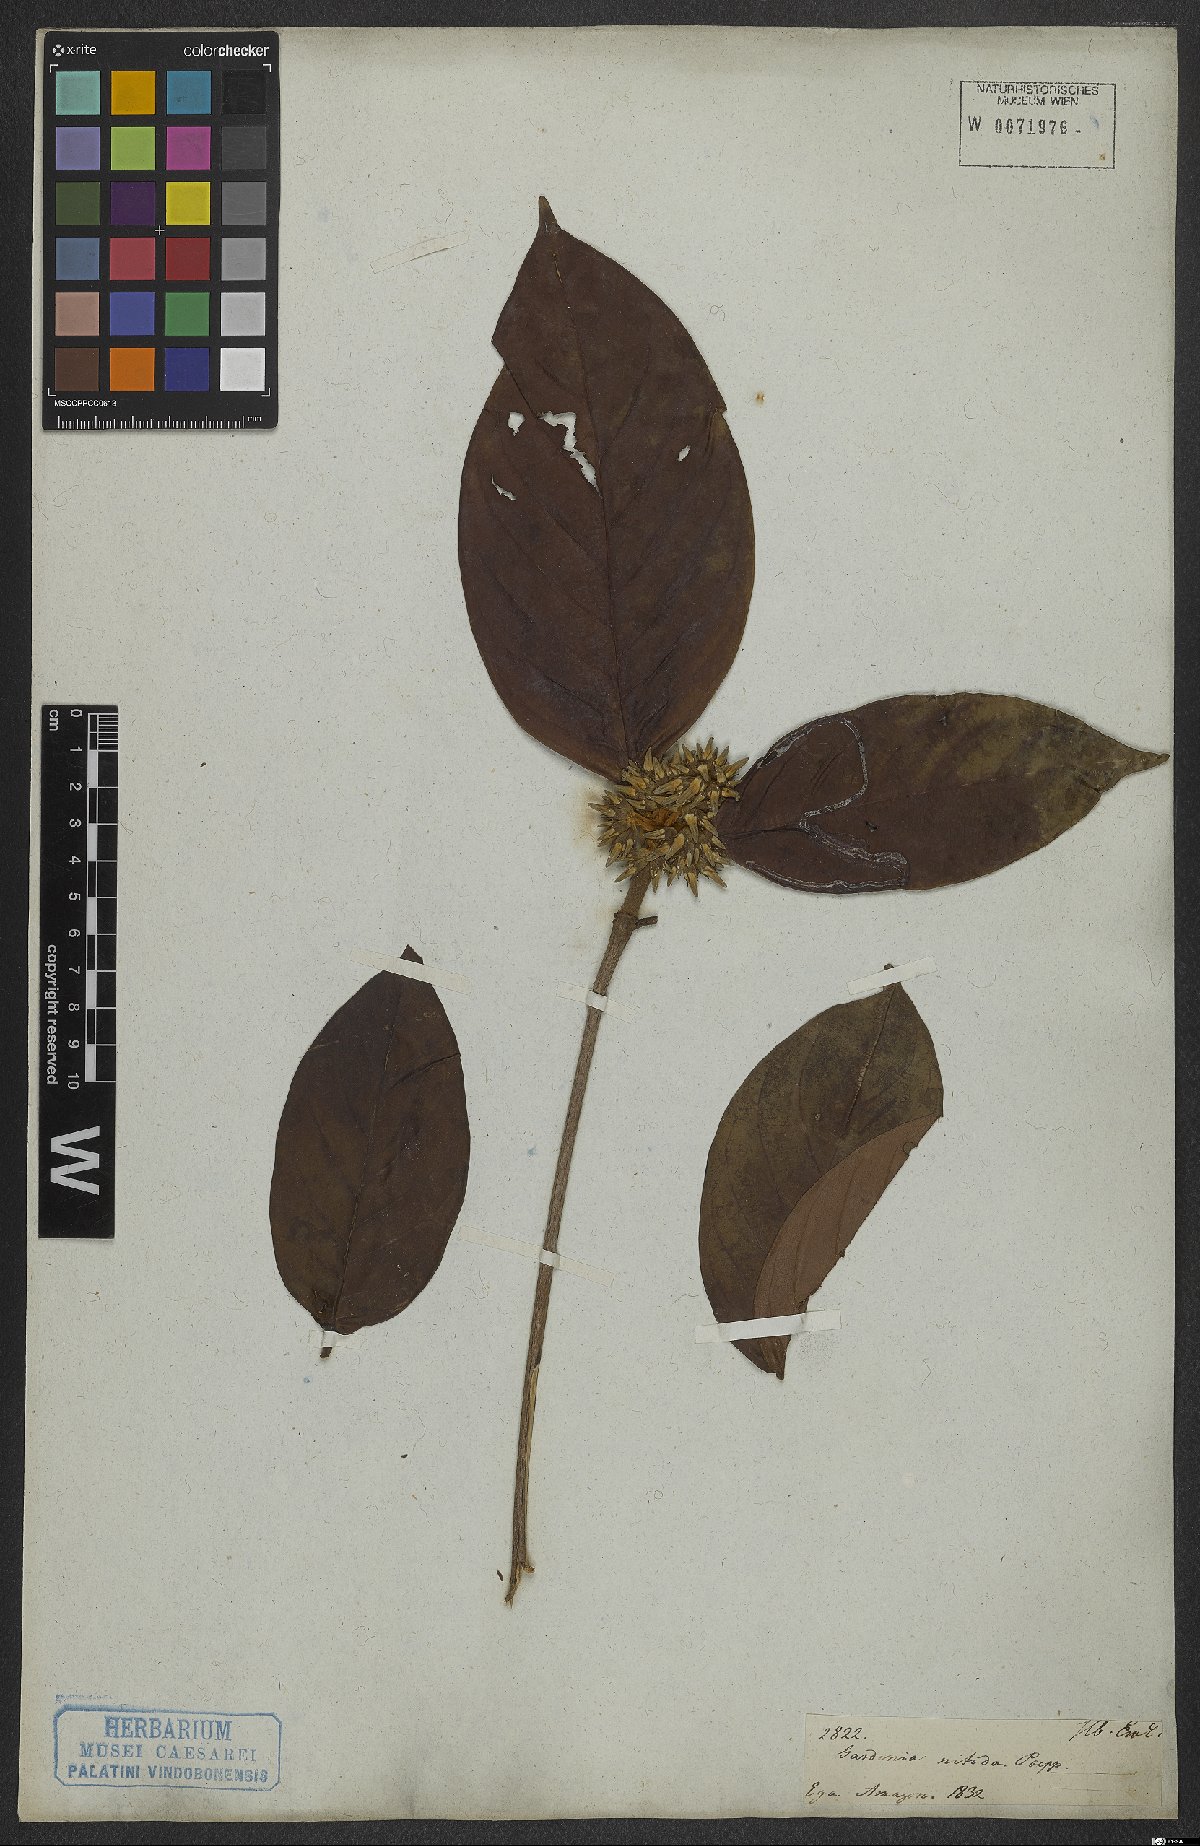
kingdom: Plantae
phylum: Tracheophyta
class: Magnoliopsida
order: Gentianales
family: Rubiaceae
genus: Amaioua
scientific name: Amaioua guianensis
